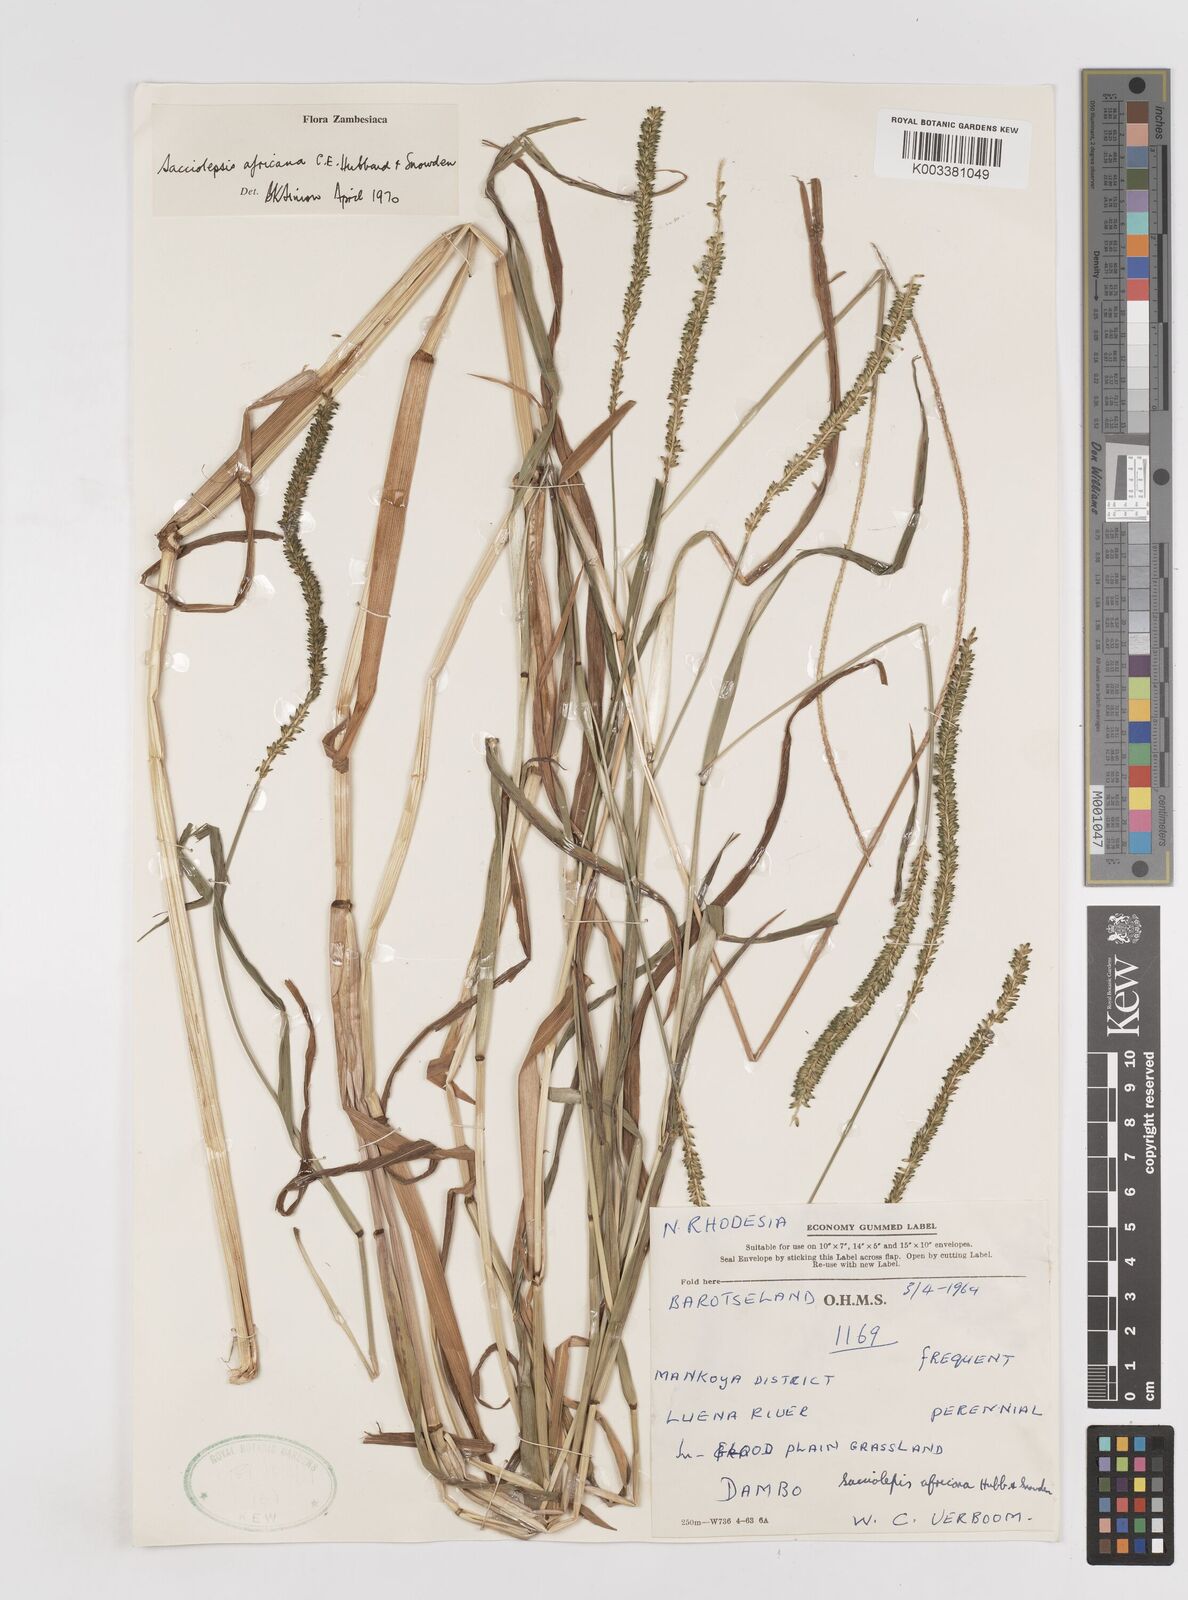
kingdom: Plantae
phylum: Tracheophyta
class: Liliopsida
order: Poales
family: Poaceae
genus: Sacciolepis
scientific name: Sacciolepis africana
